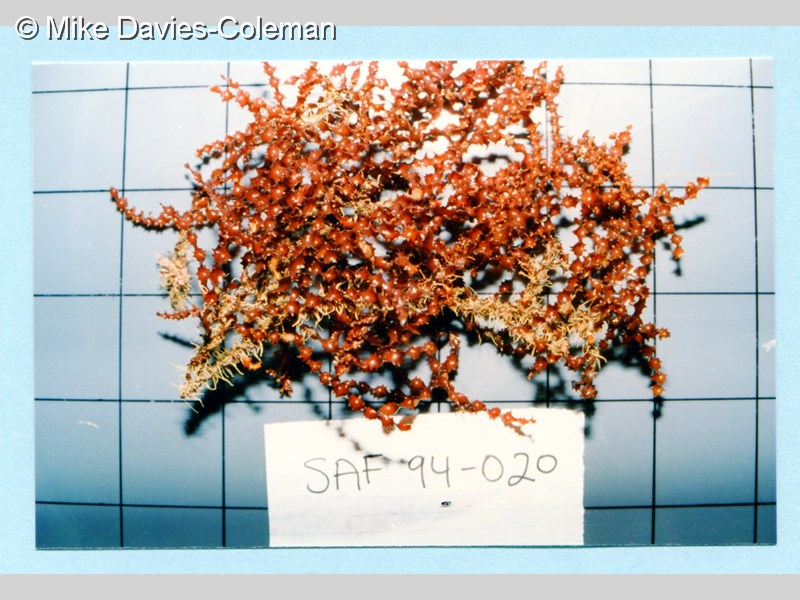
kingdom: Plantae
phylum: Rhodophyta
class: Florideophyceae
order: Ceramiales
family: Rhodomelaceae
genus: Osmundaria
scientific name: Osmundaria
